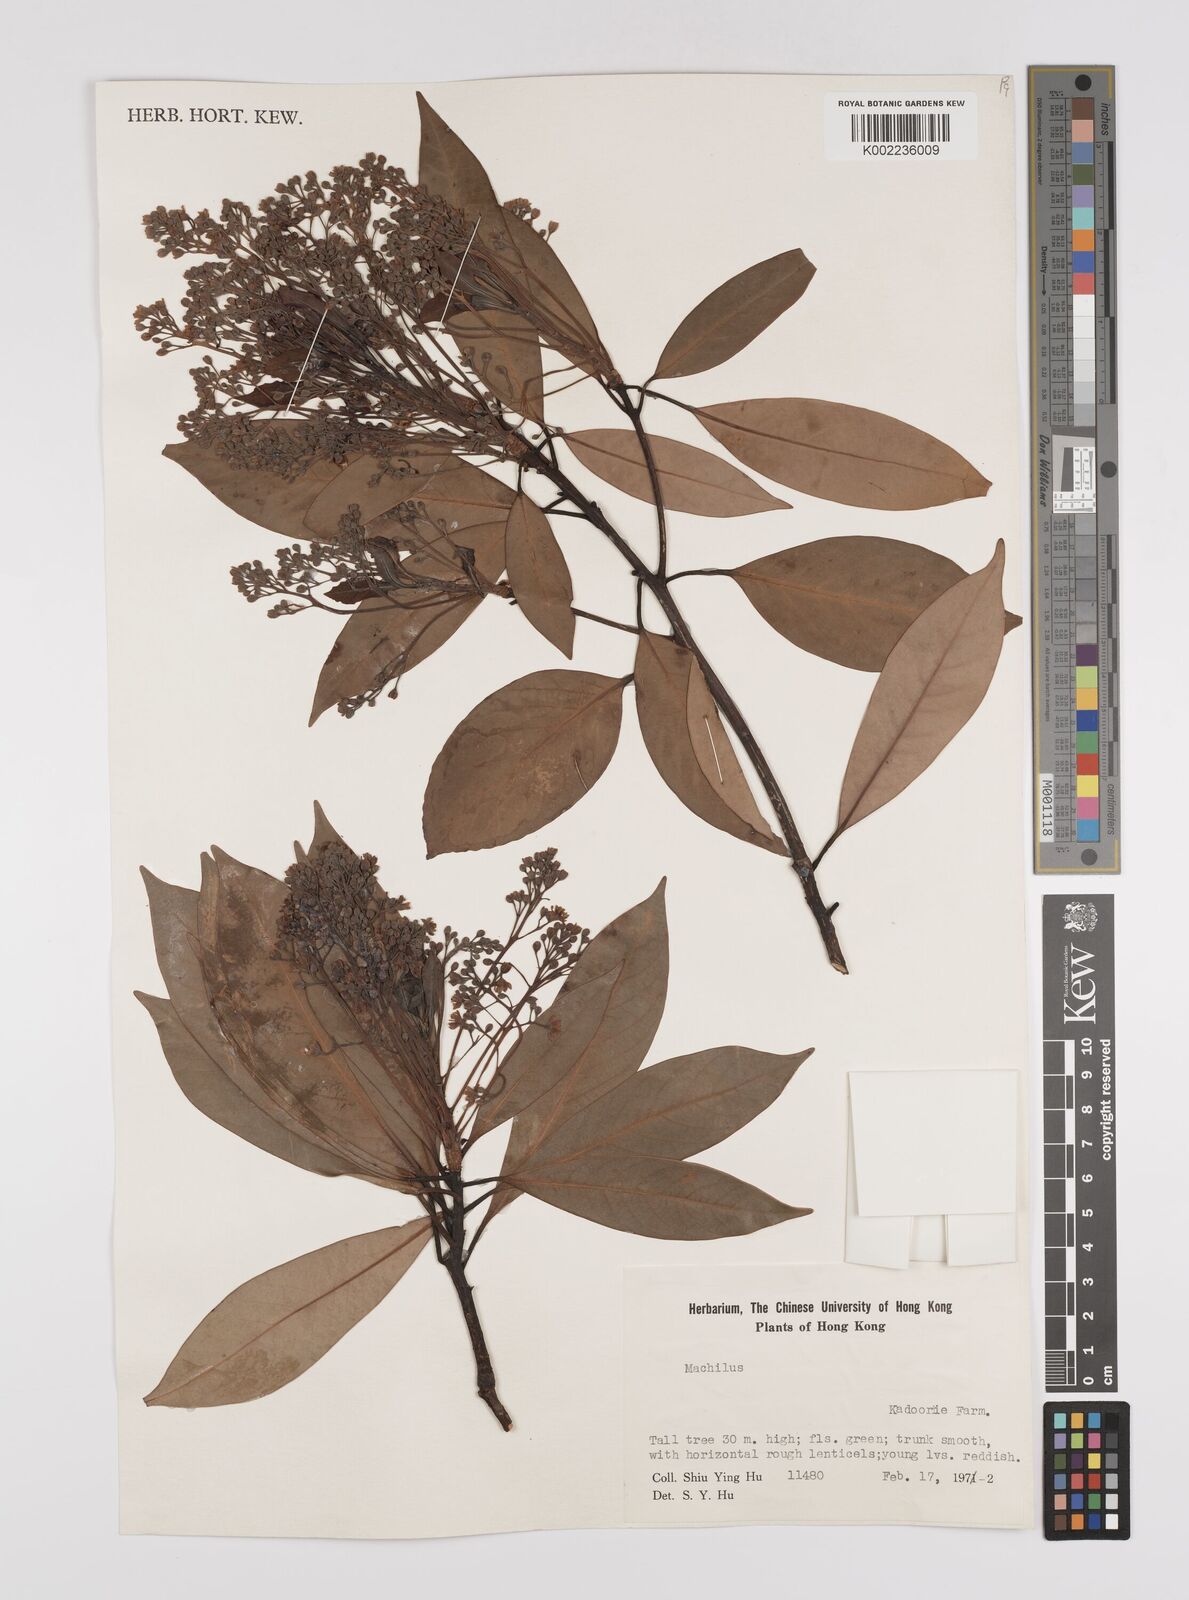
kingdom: Plantae
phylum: Tracheophyta
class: Magnoliopsida
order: Laurales
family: Lauraceae
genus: Persea
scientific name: Persea
